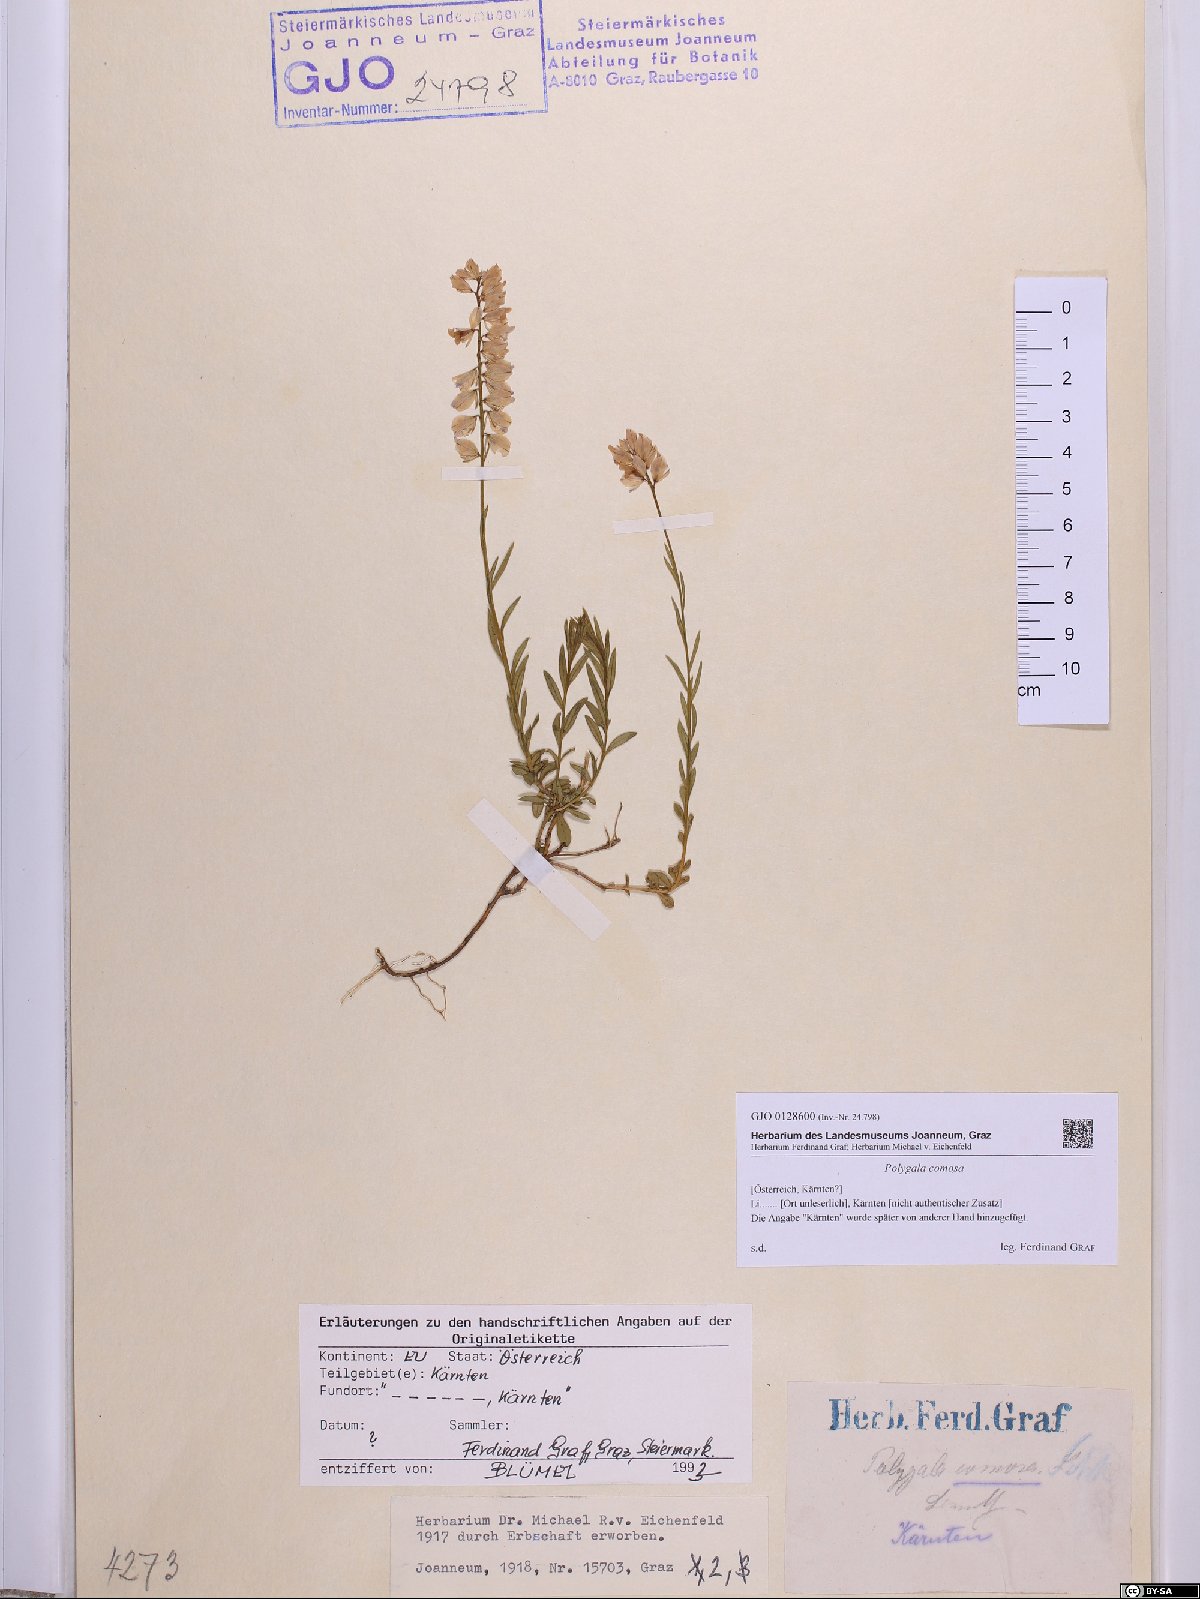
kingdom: Plantae
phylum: Tracheophyta
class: Magnoliopsida
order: Fabales
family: Polygalaceae
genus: Polygala
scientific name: Polygala comosa
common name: Tufted milkwort
